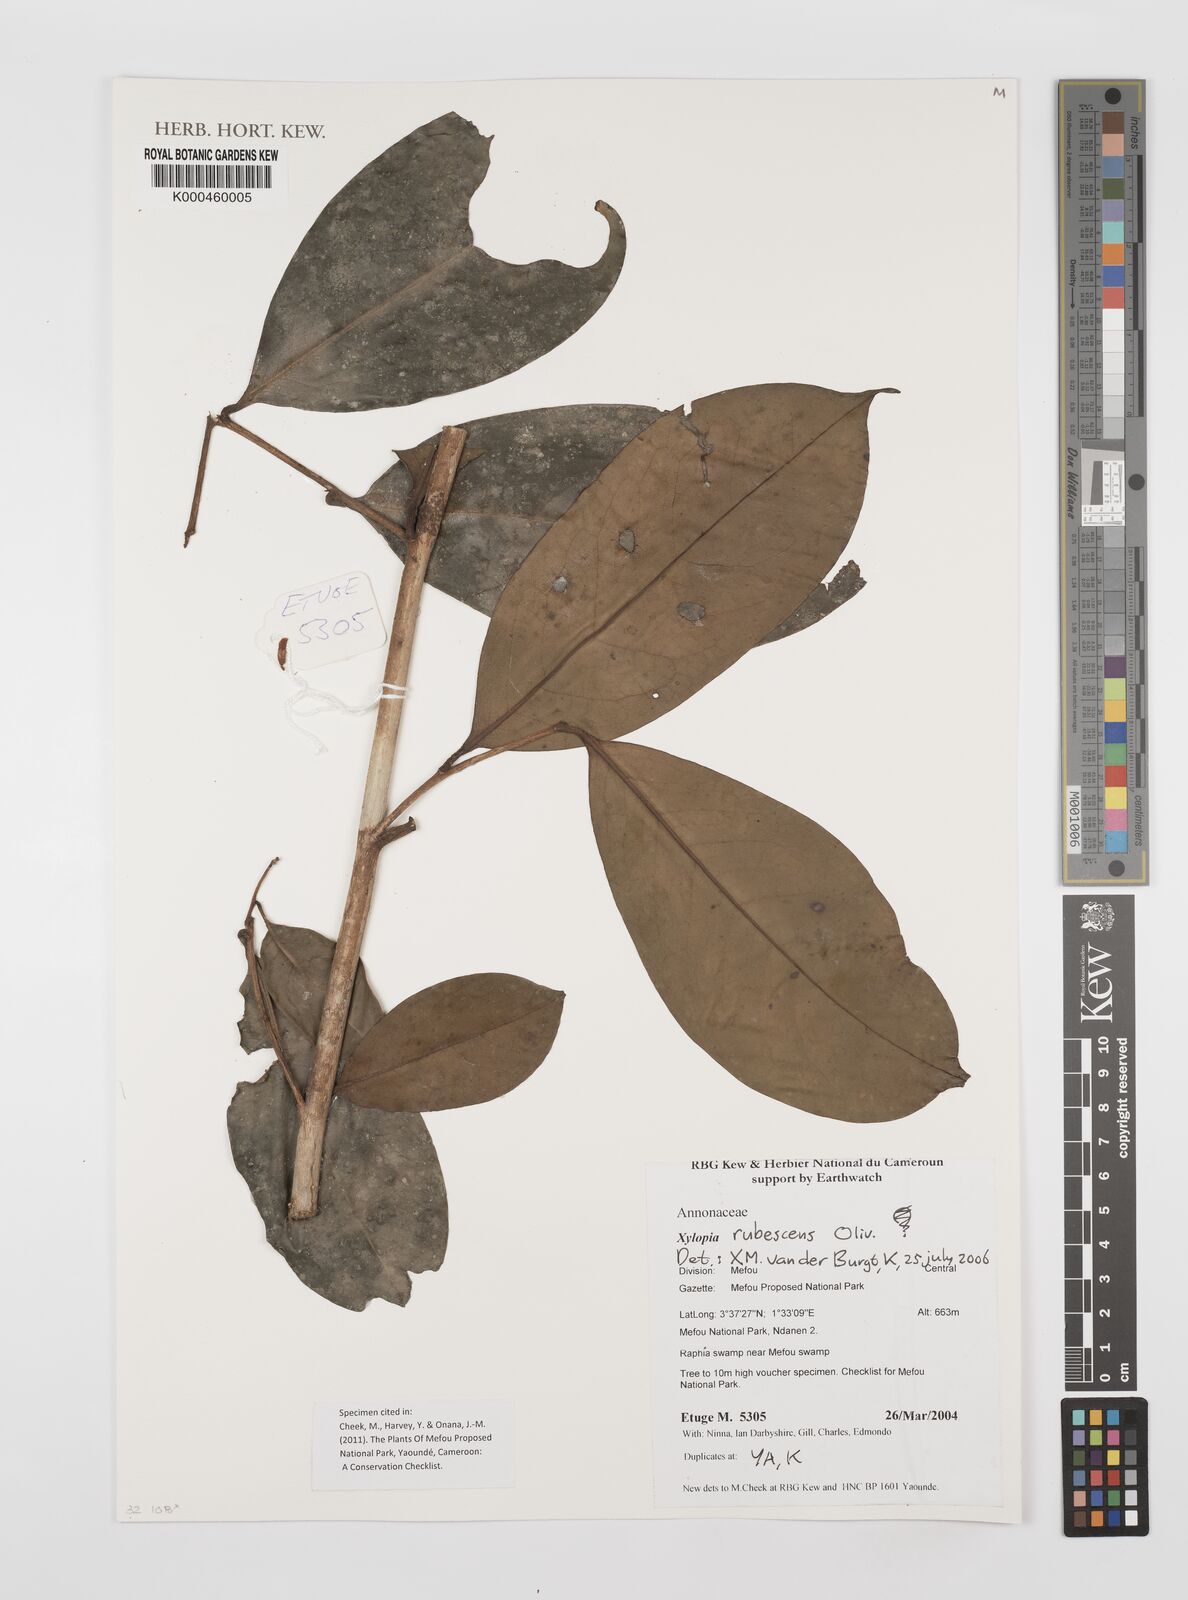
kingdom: Plantae
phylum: Tracheophyta
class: Magnoliopsida
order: Magnoliales
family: Annonaceae
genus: Xylopia
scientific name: Xylopia rubescens
